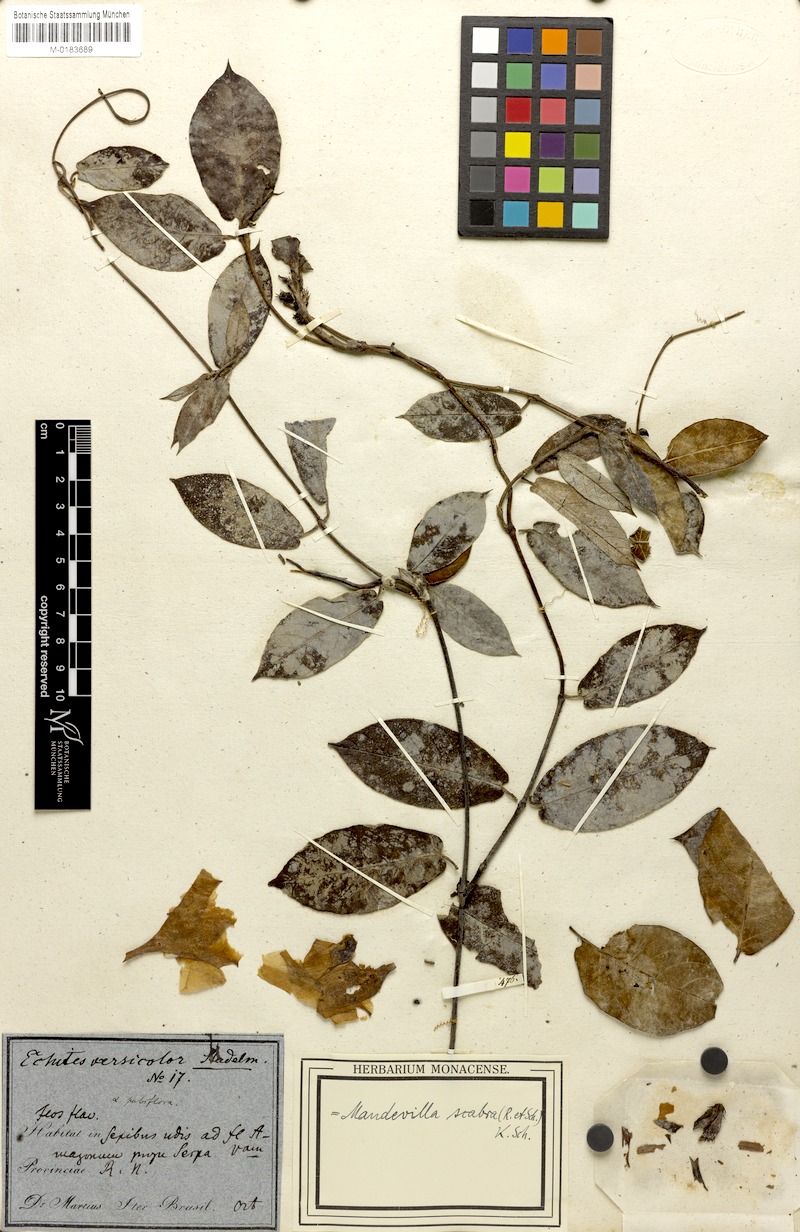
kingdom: Plantae
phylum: Tracheophyta
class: Magnoliopsida
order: Gentianales
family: Apocynaceae
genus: Mandevilla
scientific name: Mandevilla scabra
